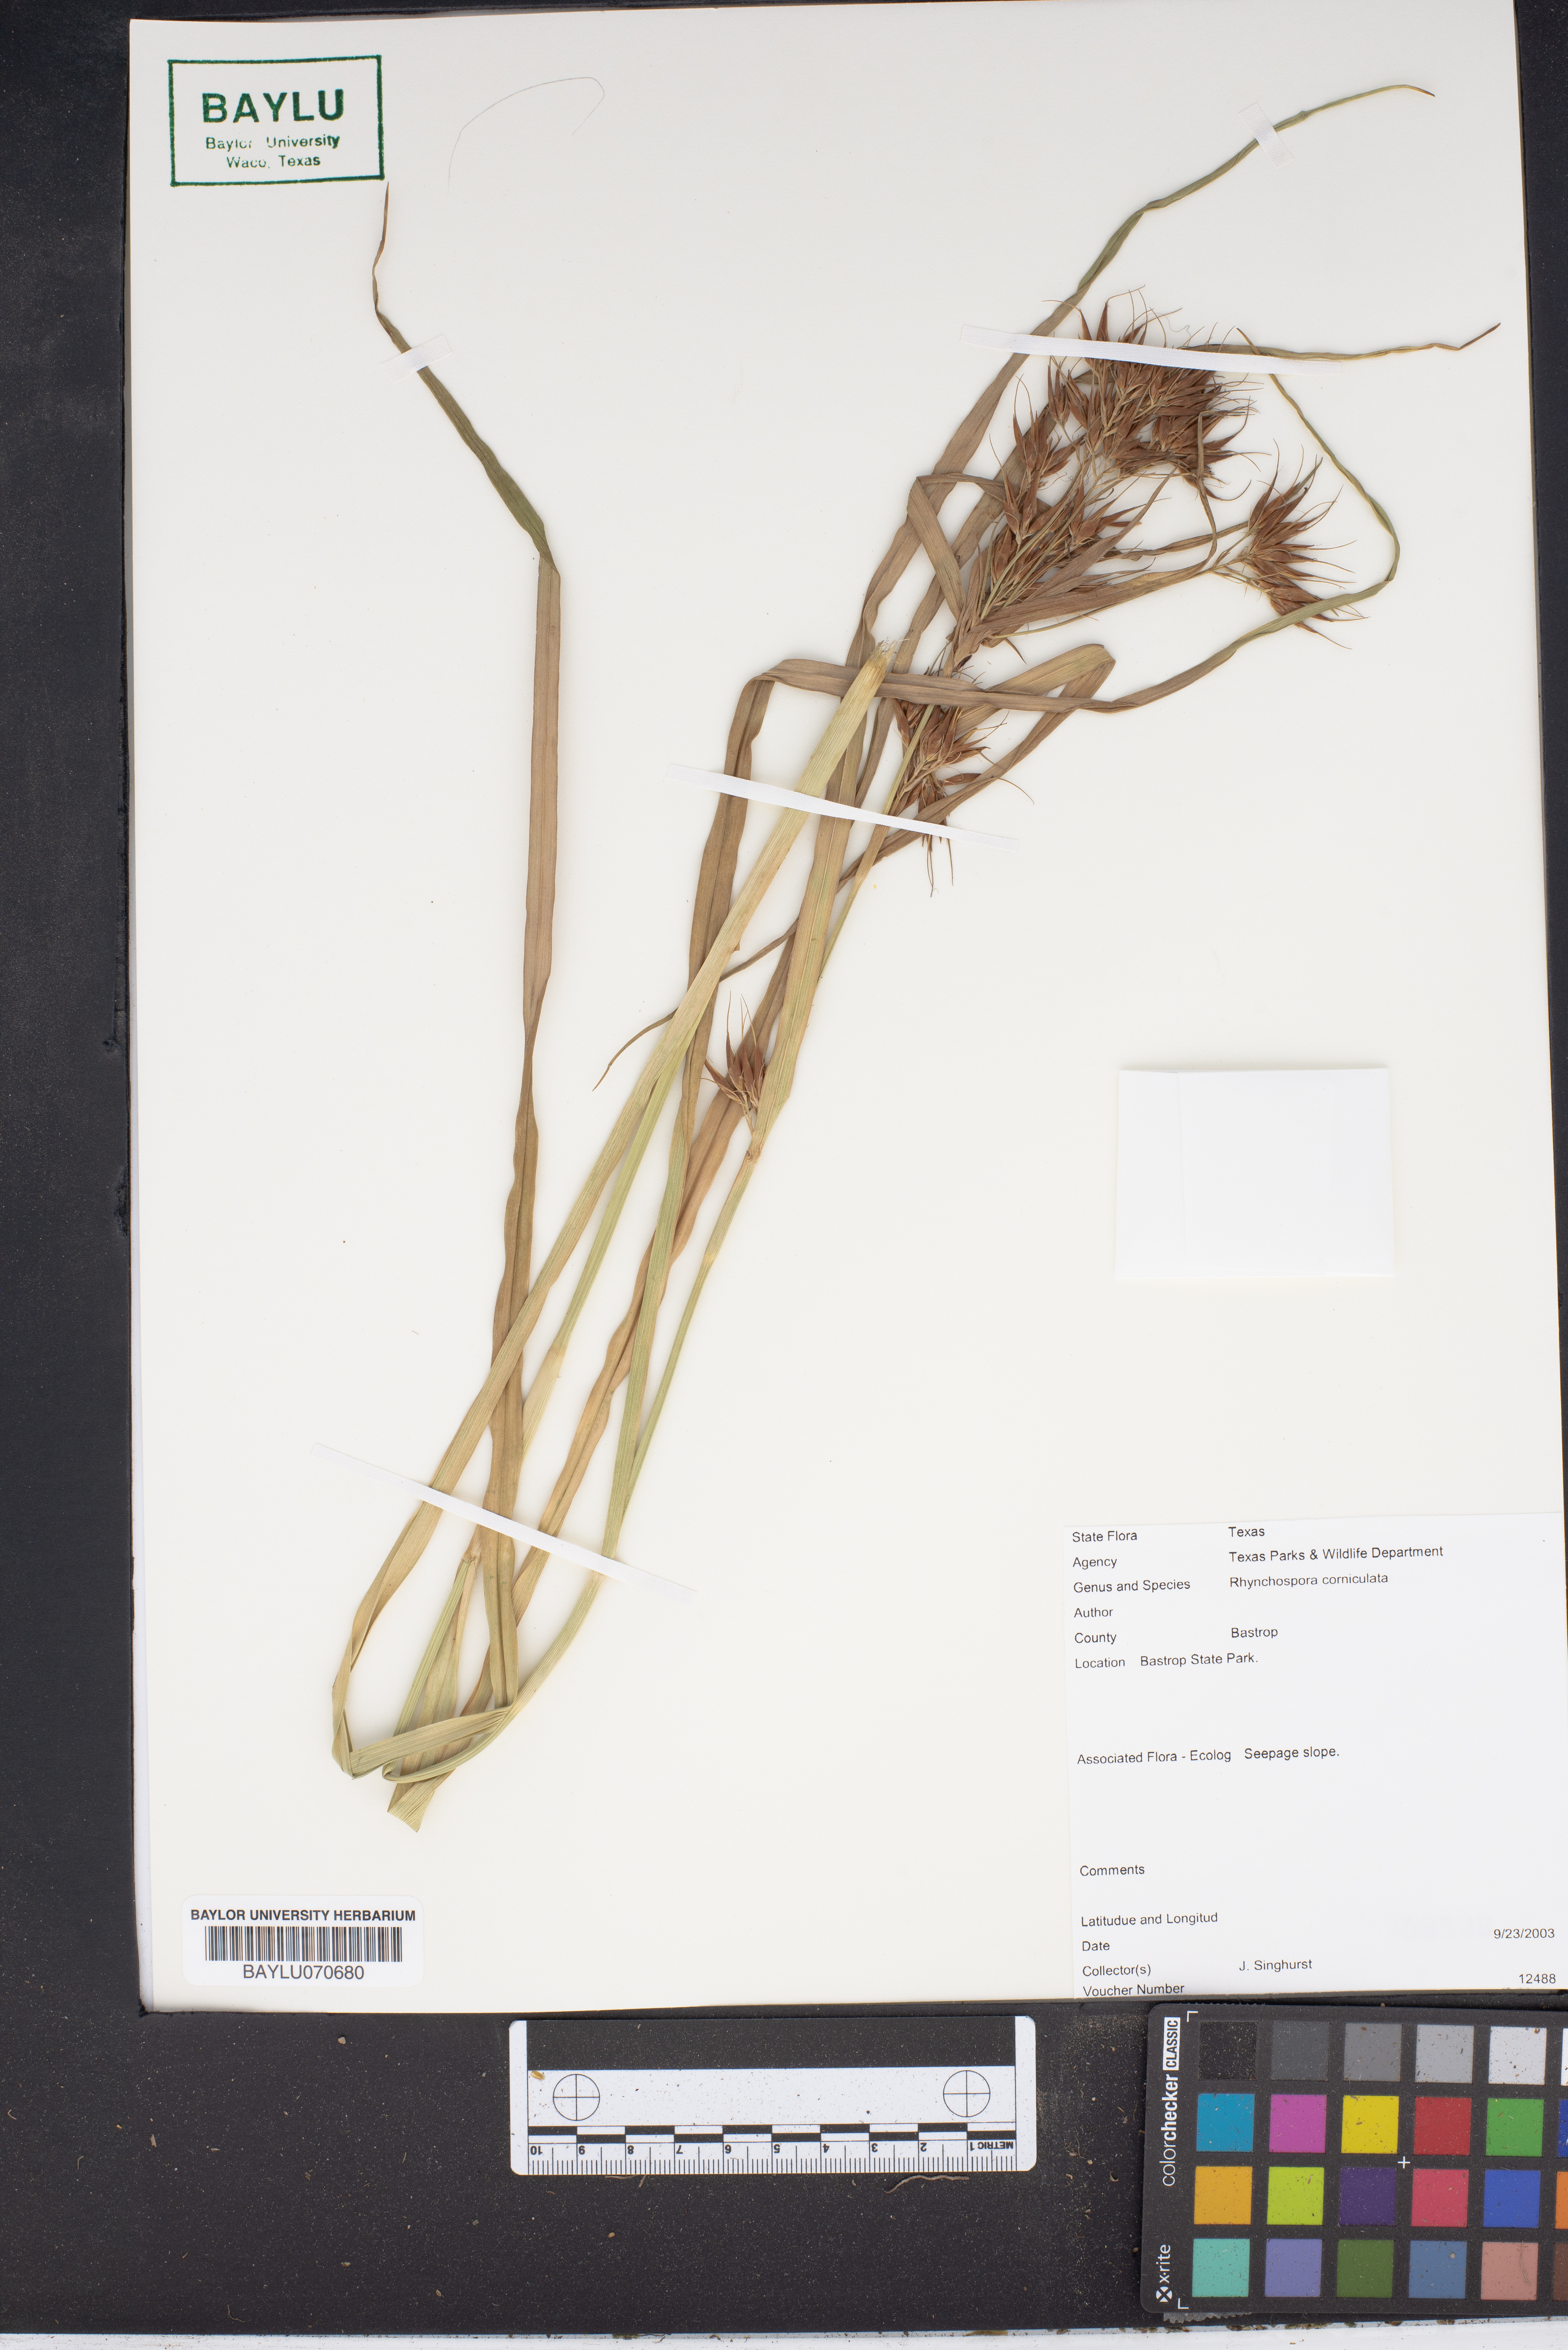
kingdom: Plantae
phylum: Tracheophyta
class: Liliopsida
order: Poales
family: Cyperaceae
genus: Rhynchospora
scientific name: Rhynchospora corniculata
